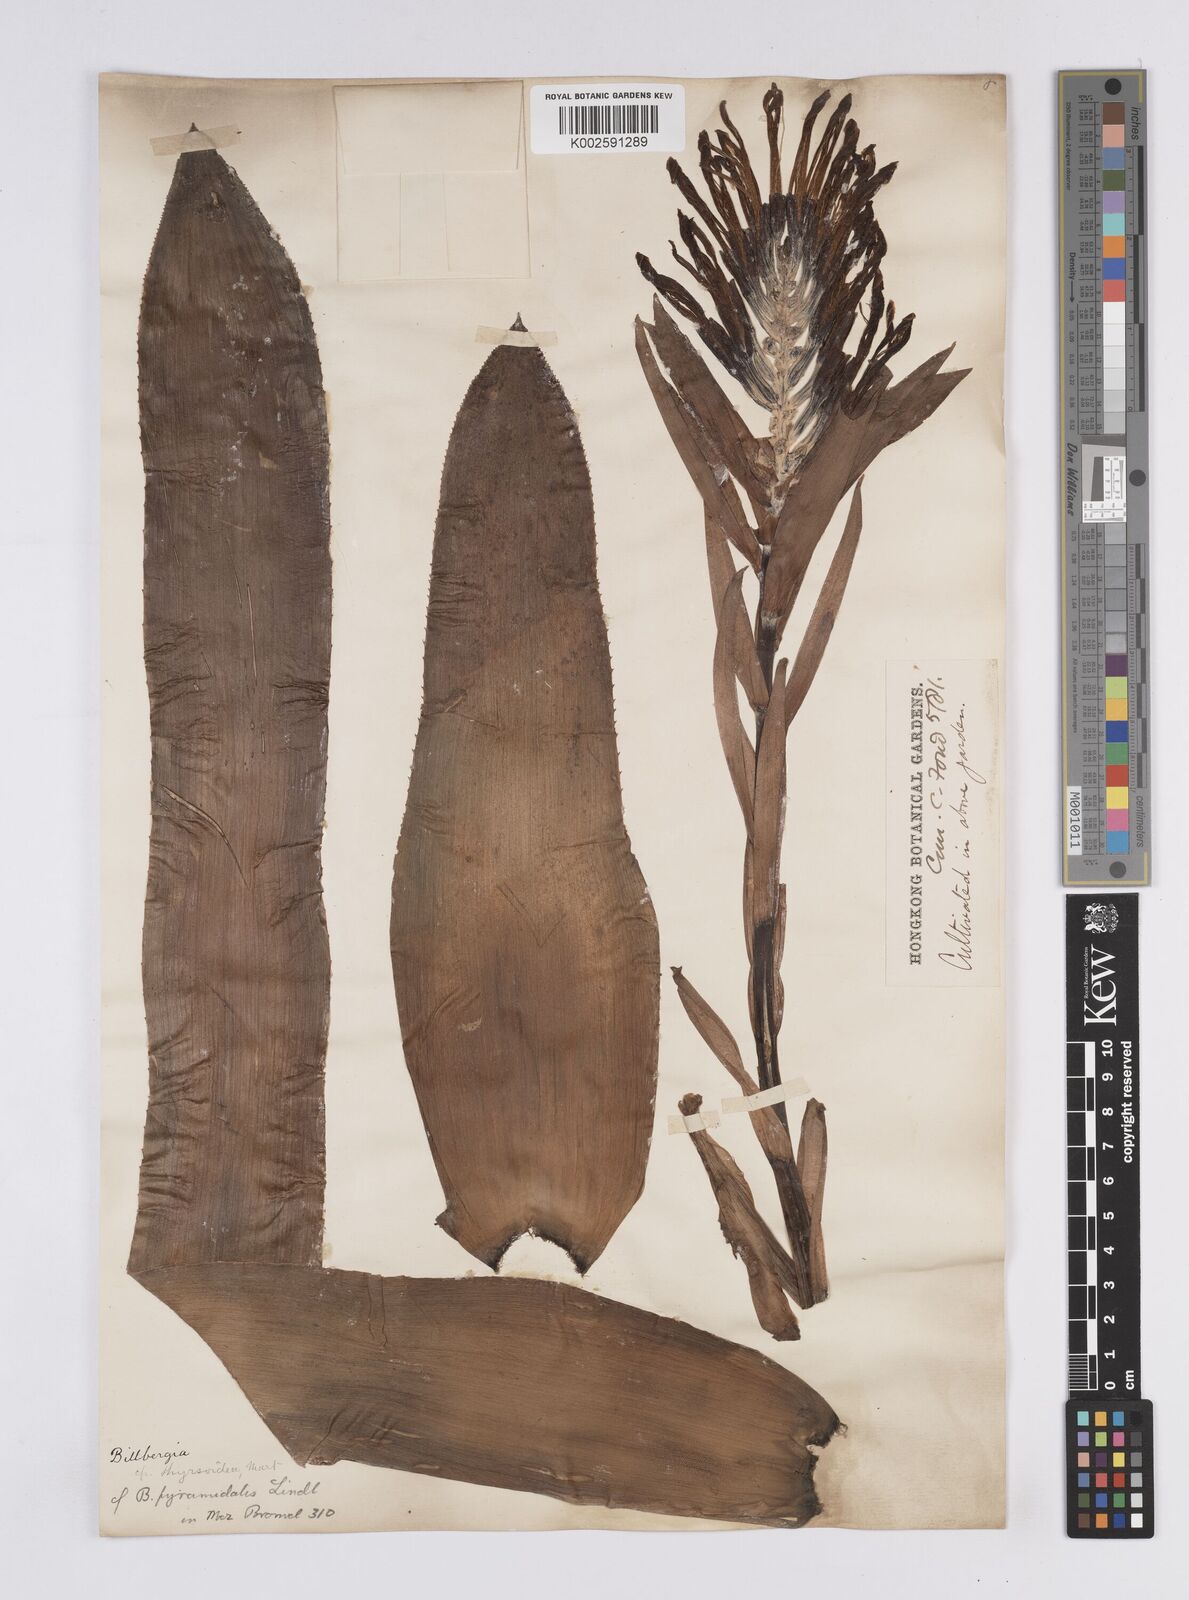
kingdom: Plantae
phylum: Tracheophyta
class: Liliopsida
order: Poales
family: Bromeliaceae
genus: Billbergia
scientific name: Billbergia pyramidalis
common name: Foolproofplant
